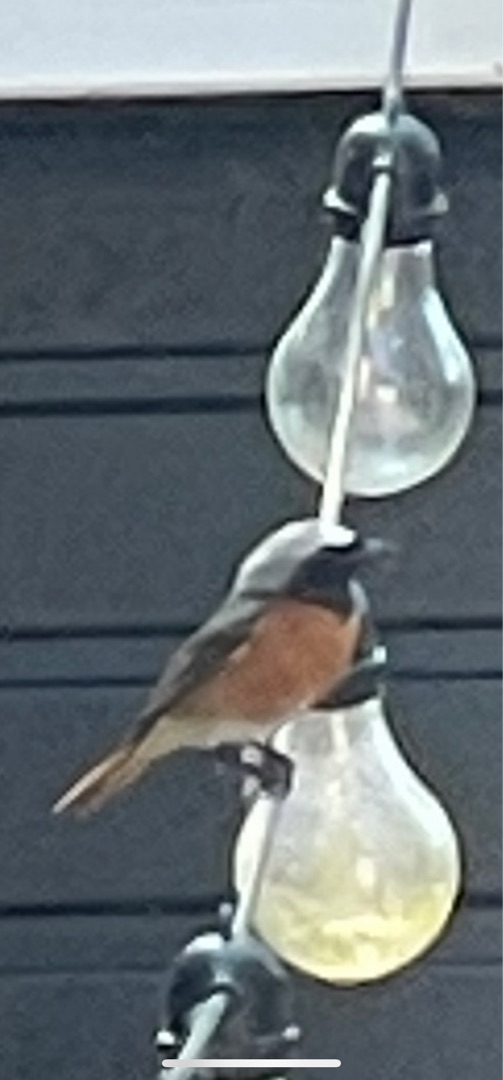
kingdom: Animalia
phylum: Chordata
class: Aves
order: Passeriformes
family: Muscicapidae
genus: Phoenicurus
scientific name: Phoenicurus phoenicurus
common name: Rødstjert
